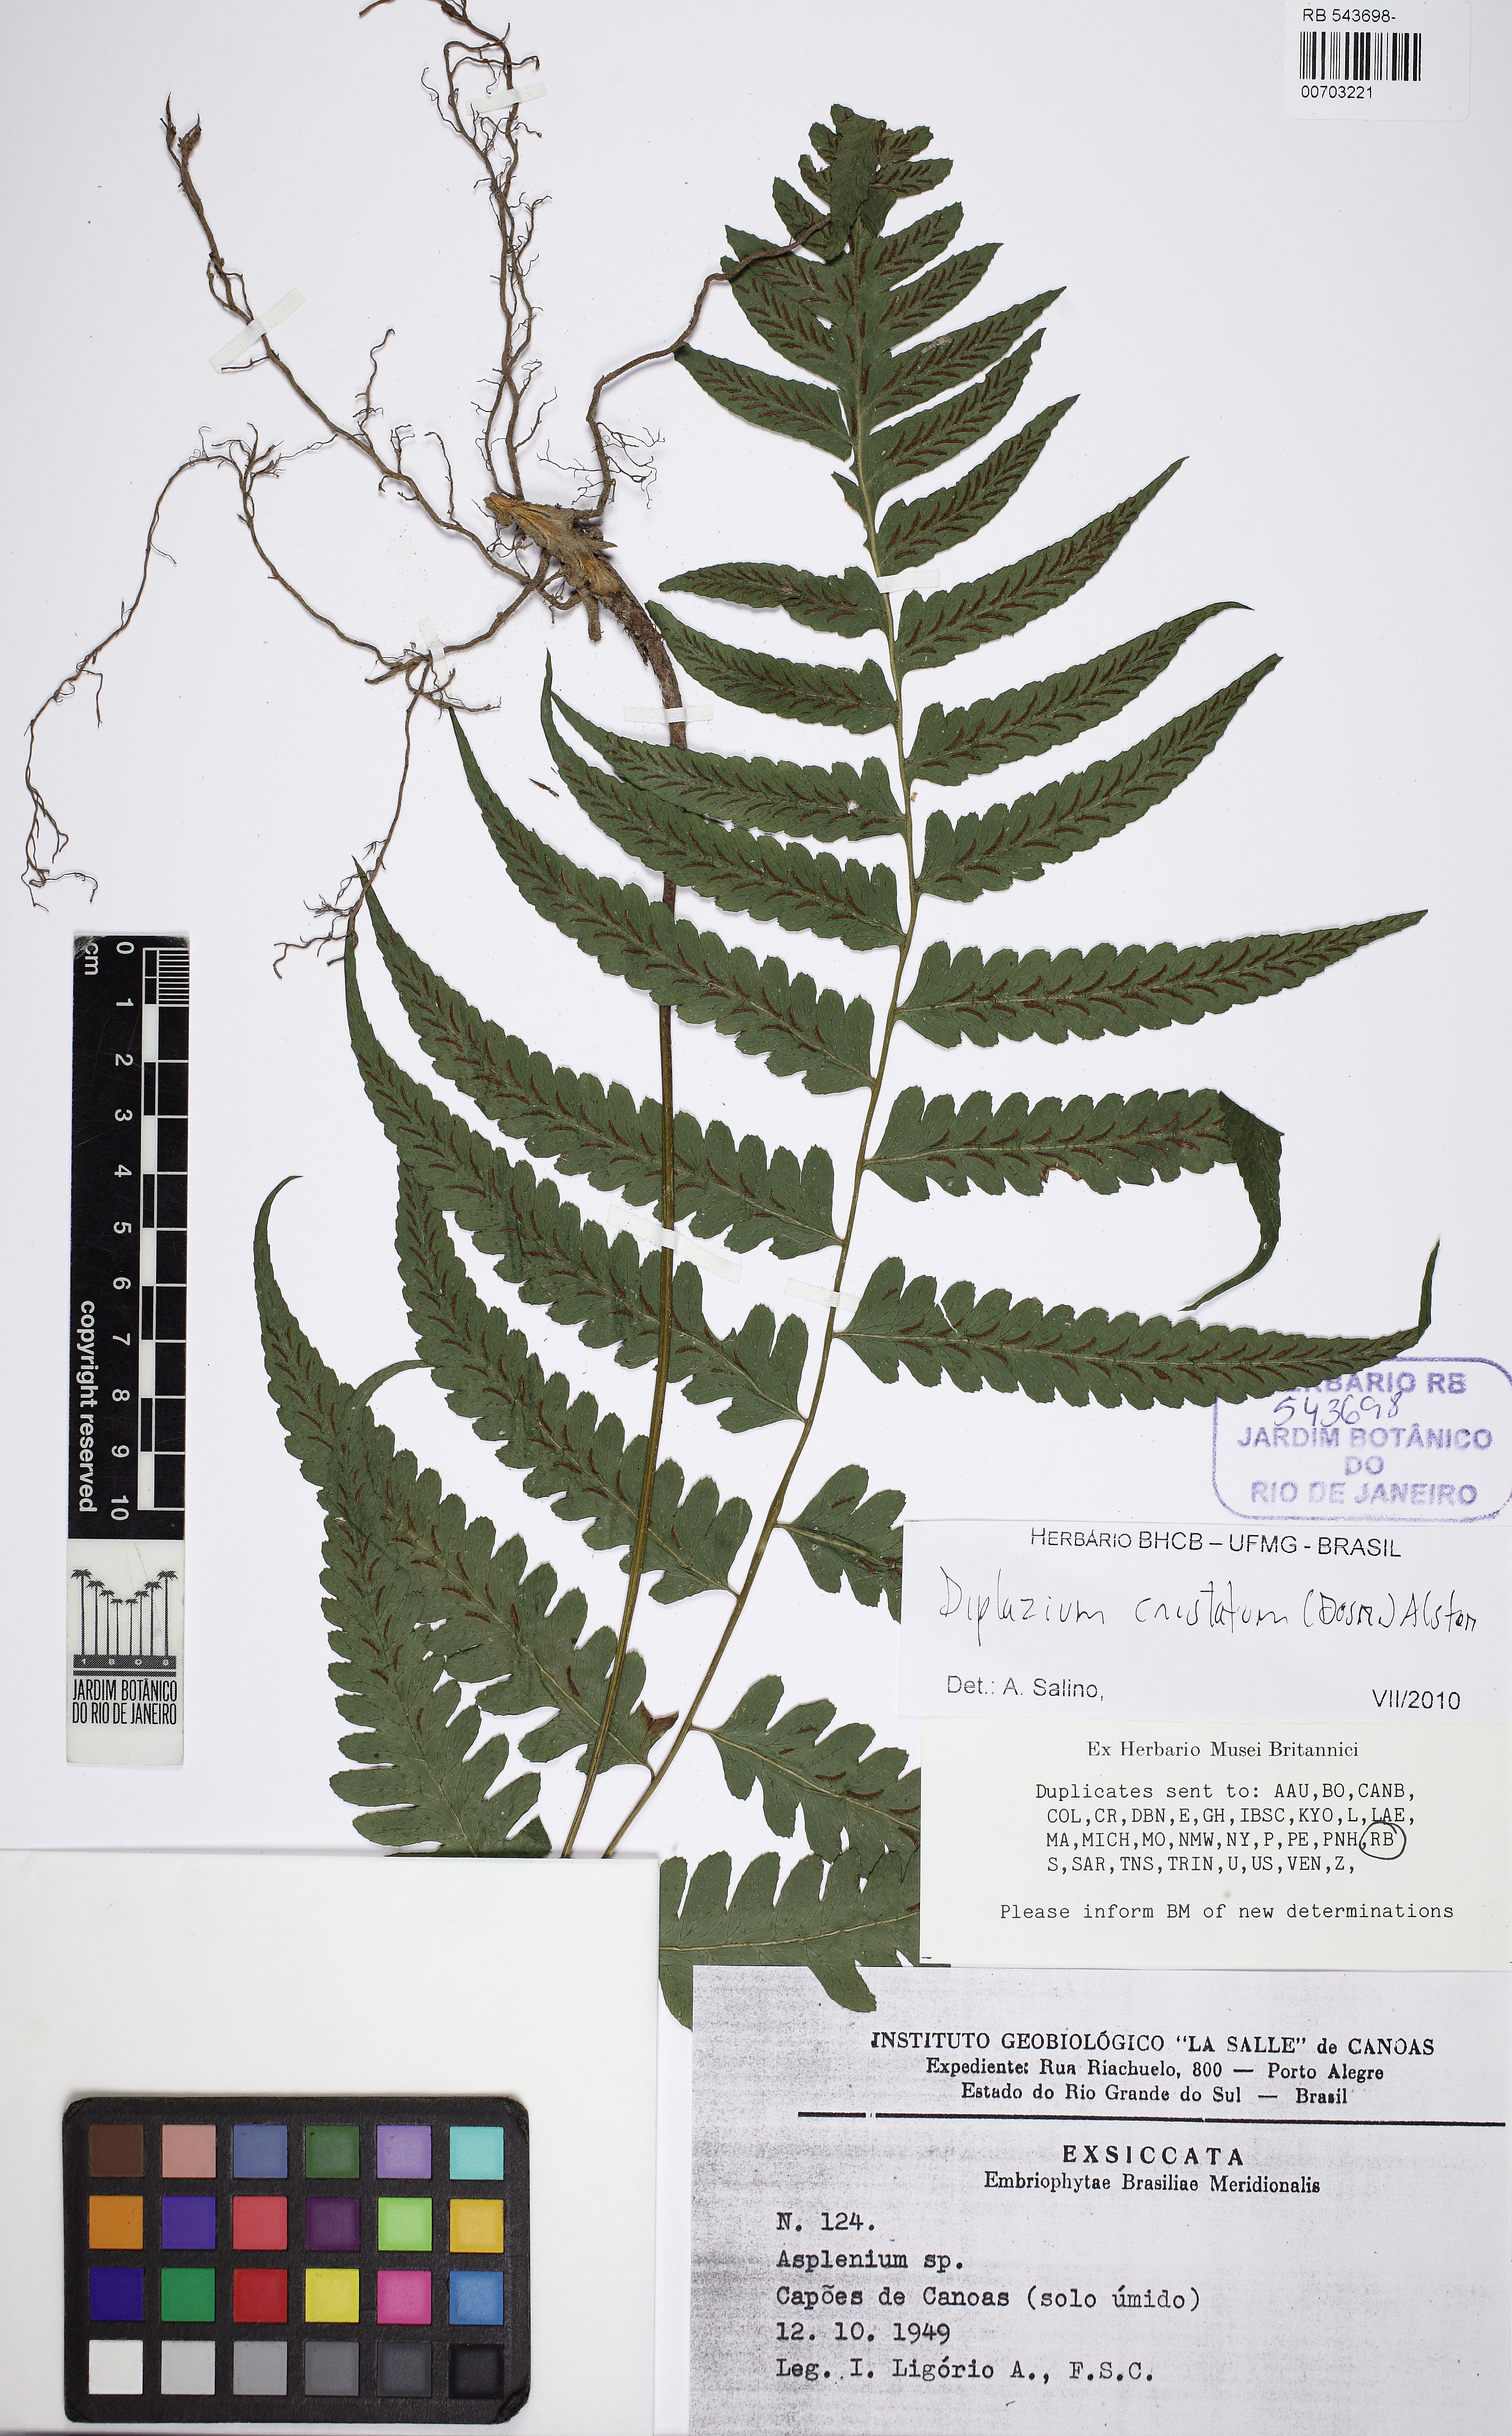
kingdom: Plantae
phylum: Tracheophyta
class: Polypodiopsida
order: Polypodiales
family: Athyriaceae
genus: Diplazium
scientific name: Diplazium cristatum
